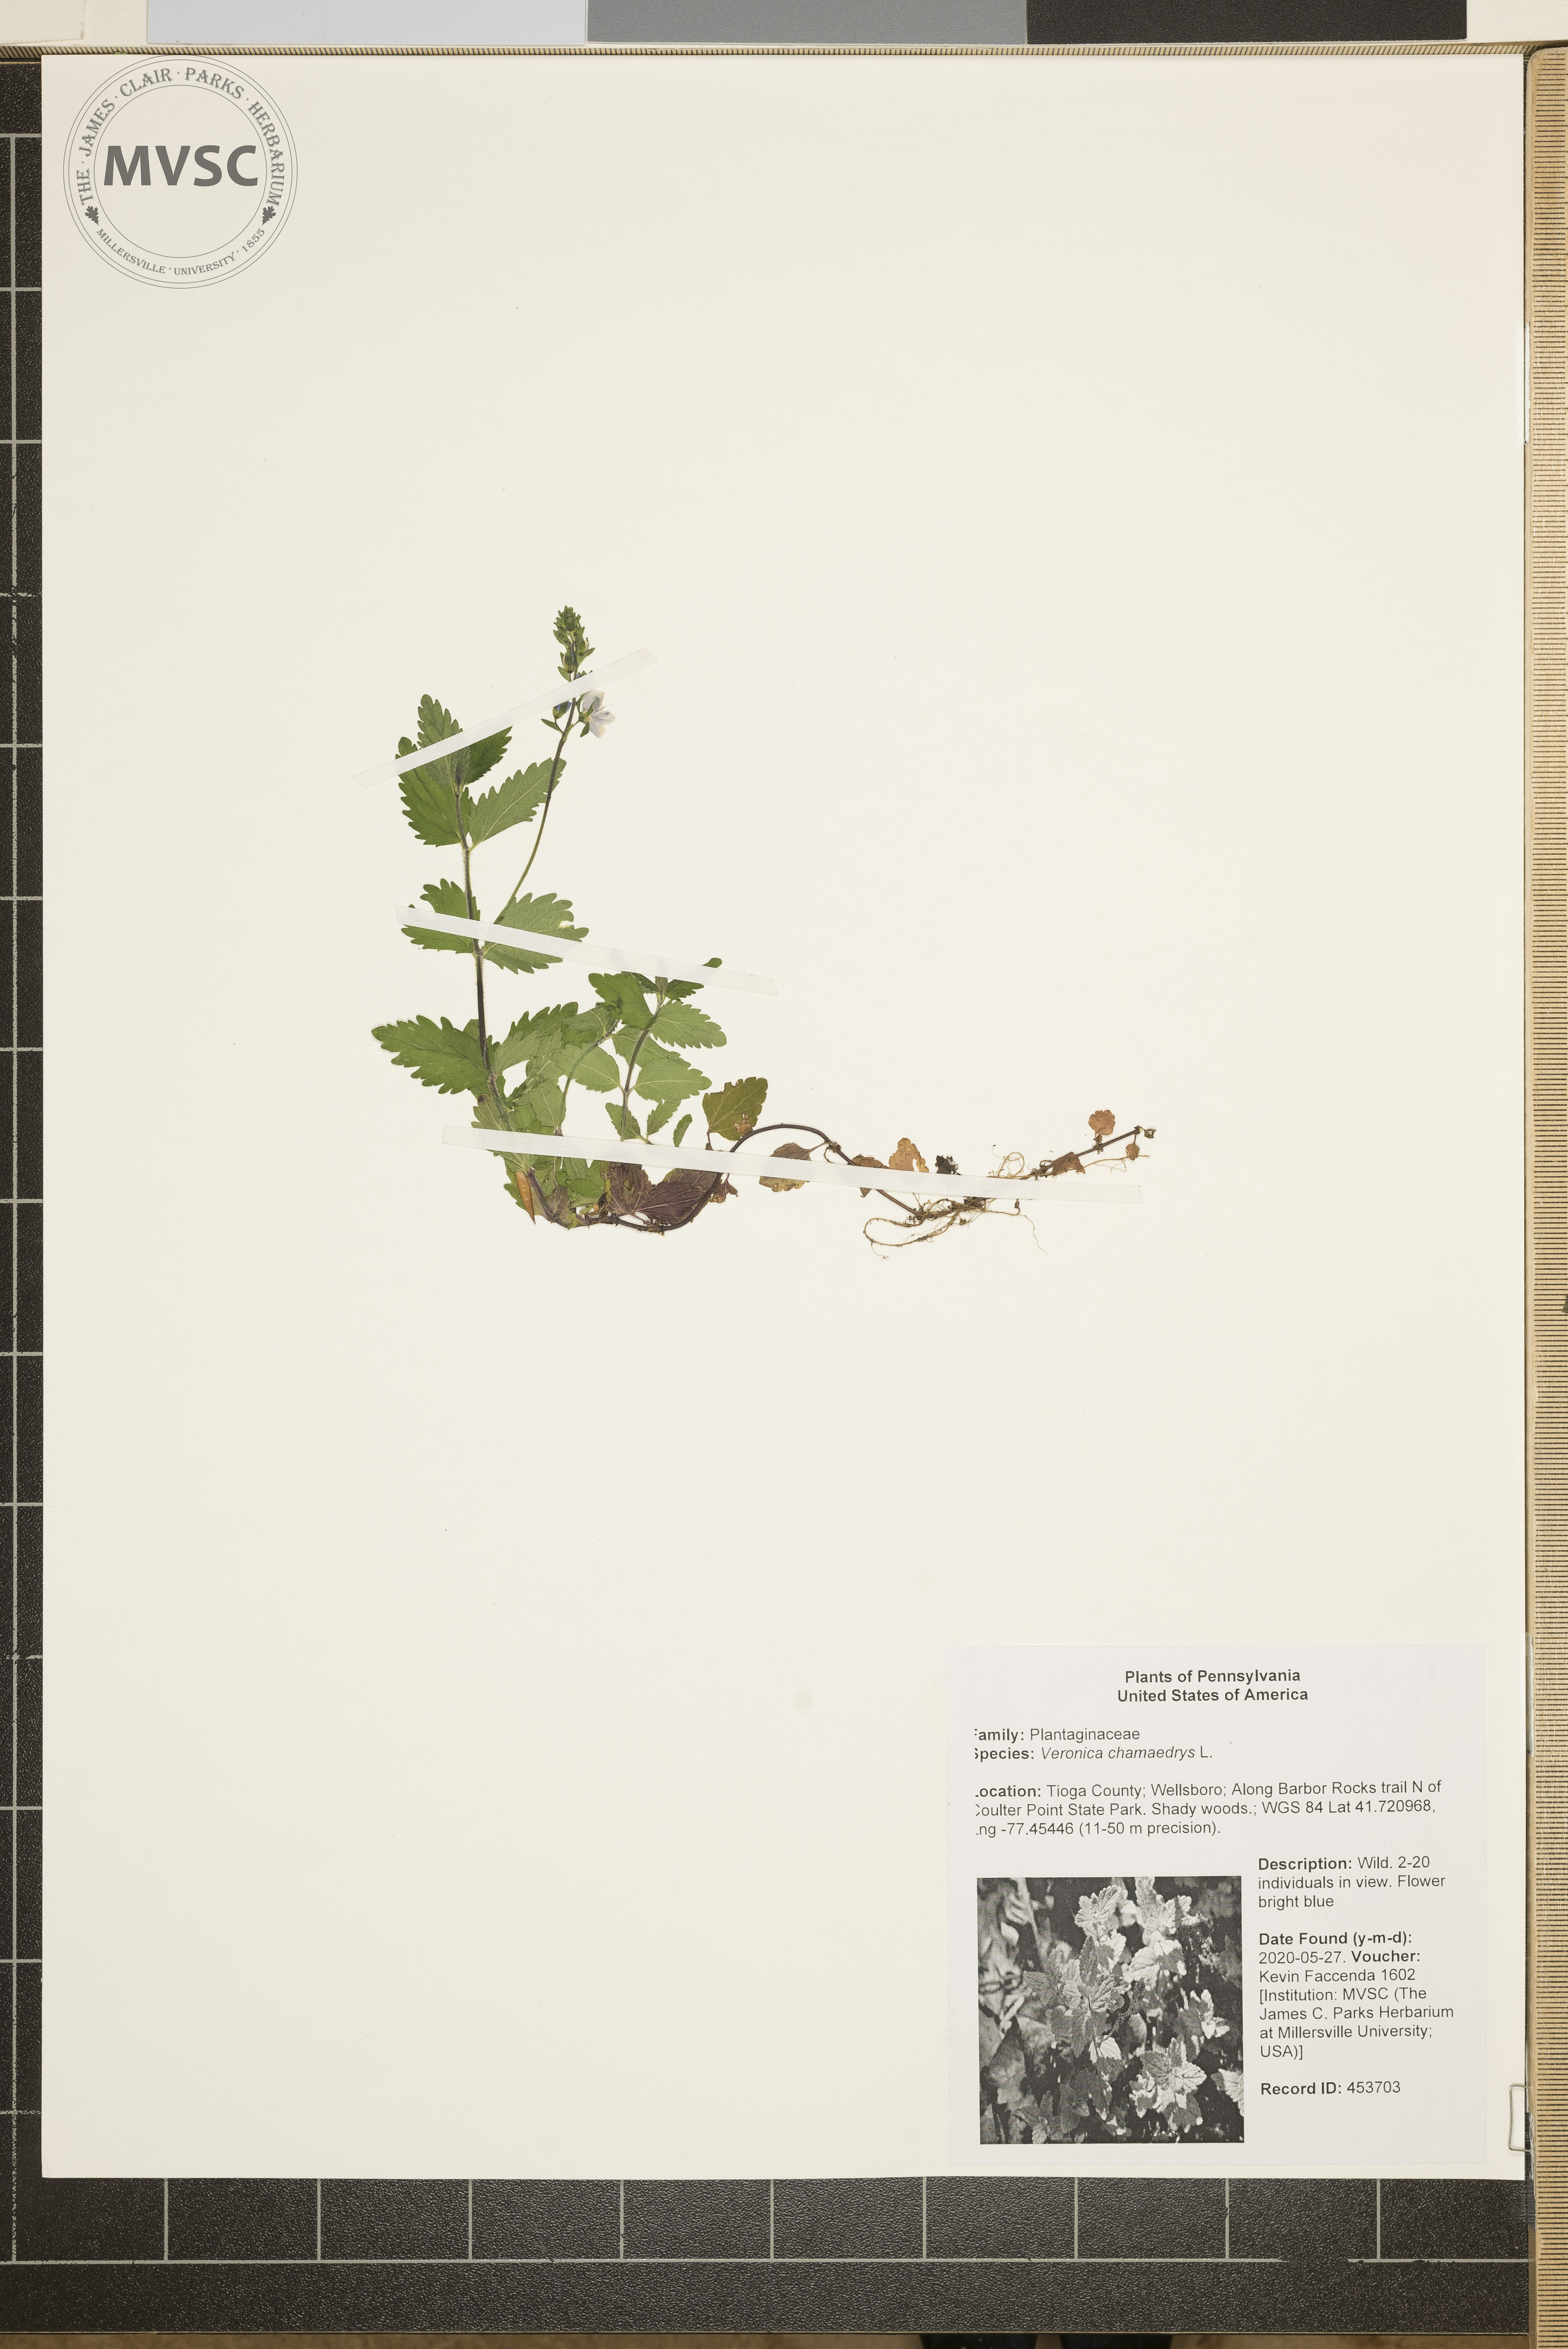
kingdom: Plantae
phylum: Tracheophyta
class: Magnoliopsida
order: Lamiales
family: Plantaginaceae
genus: Veronica
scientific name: Veronica chamaedrys
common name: Germander speedwell
